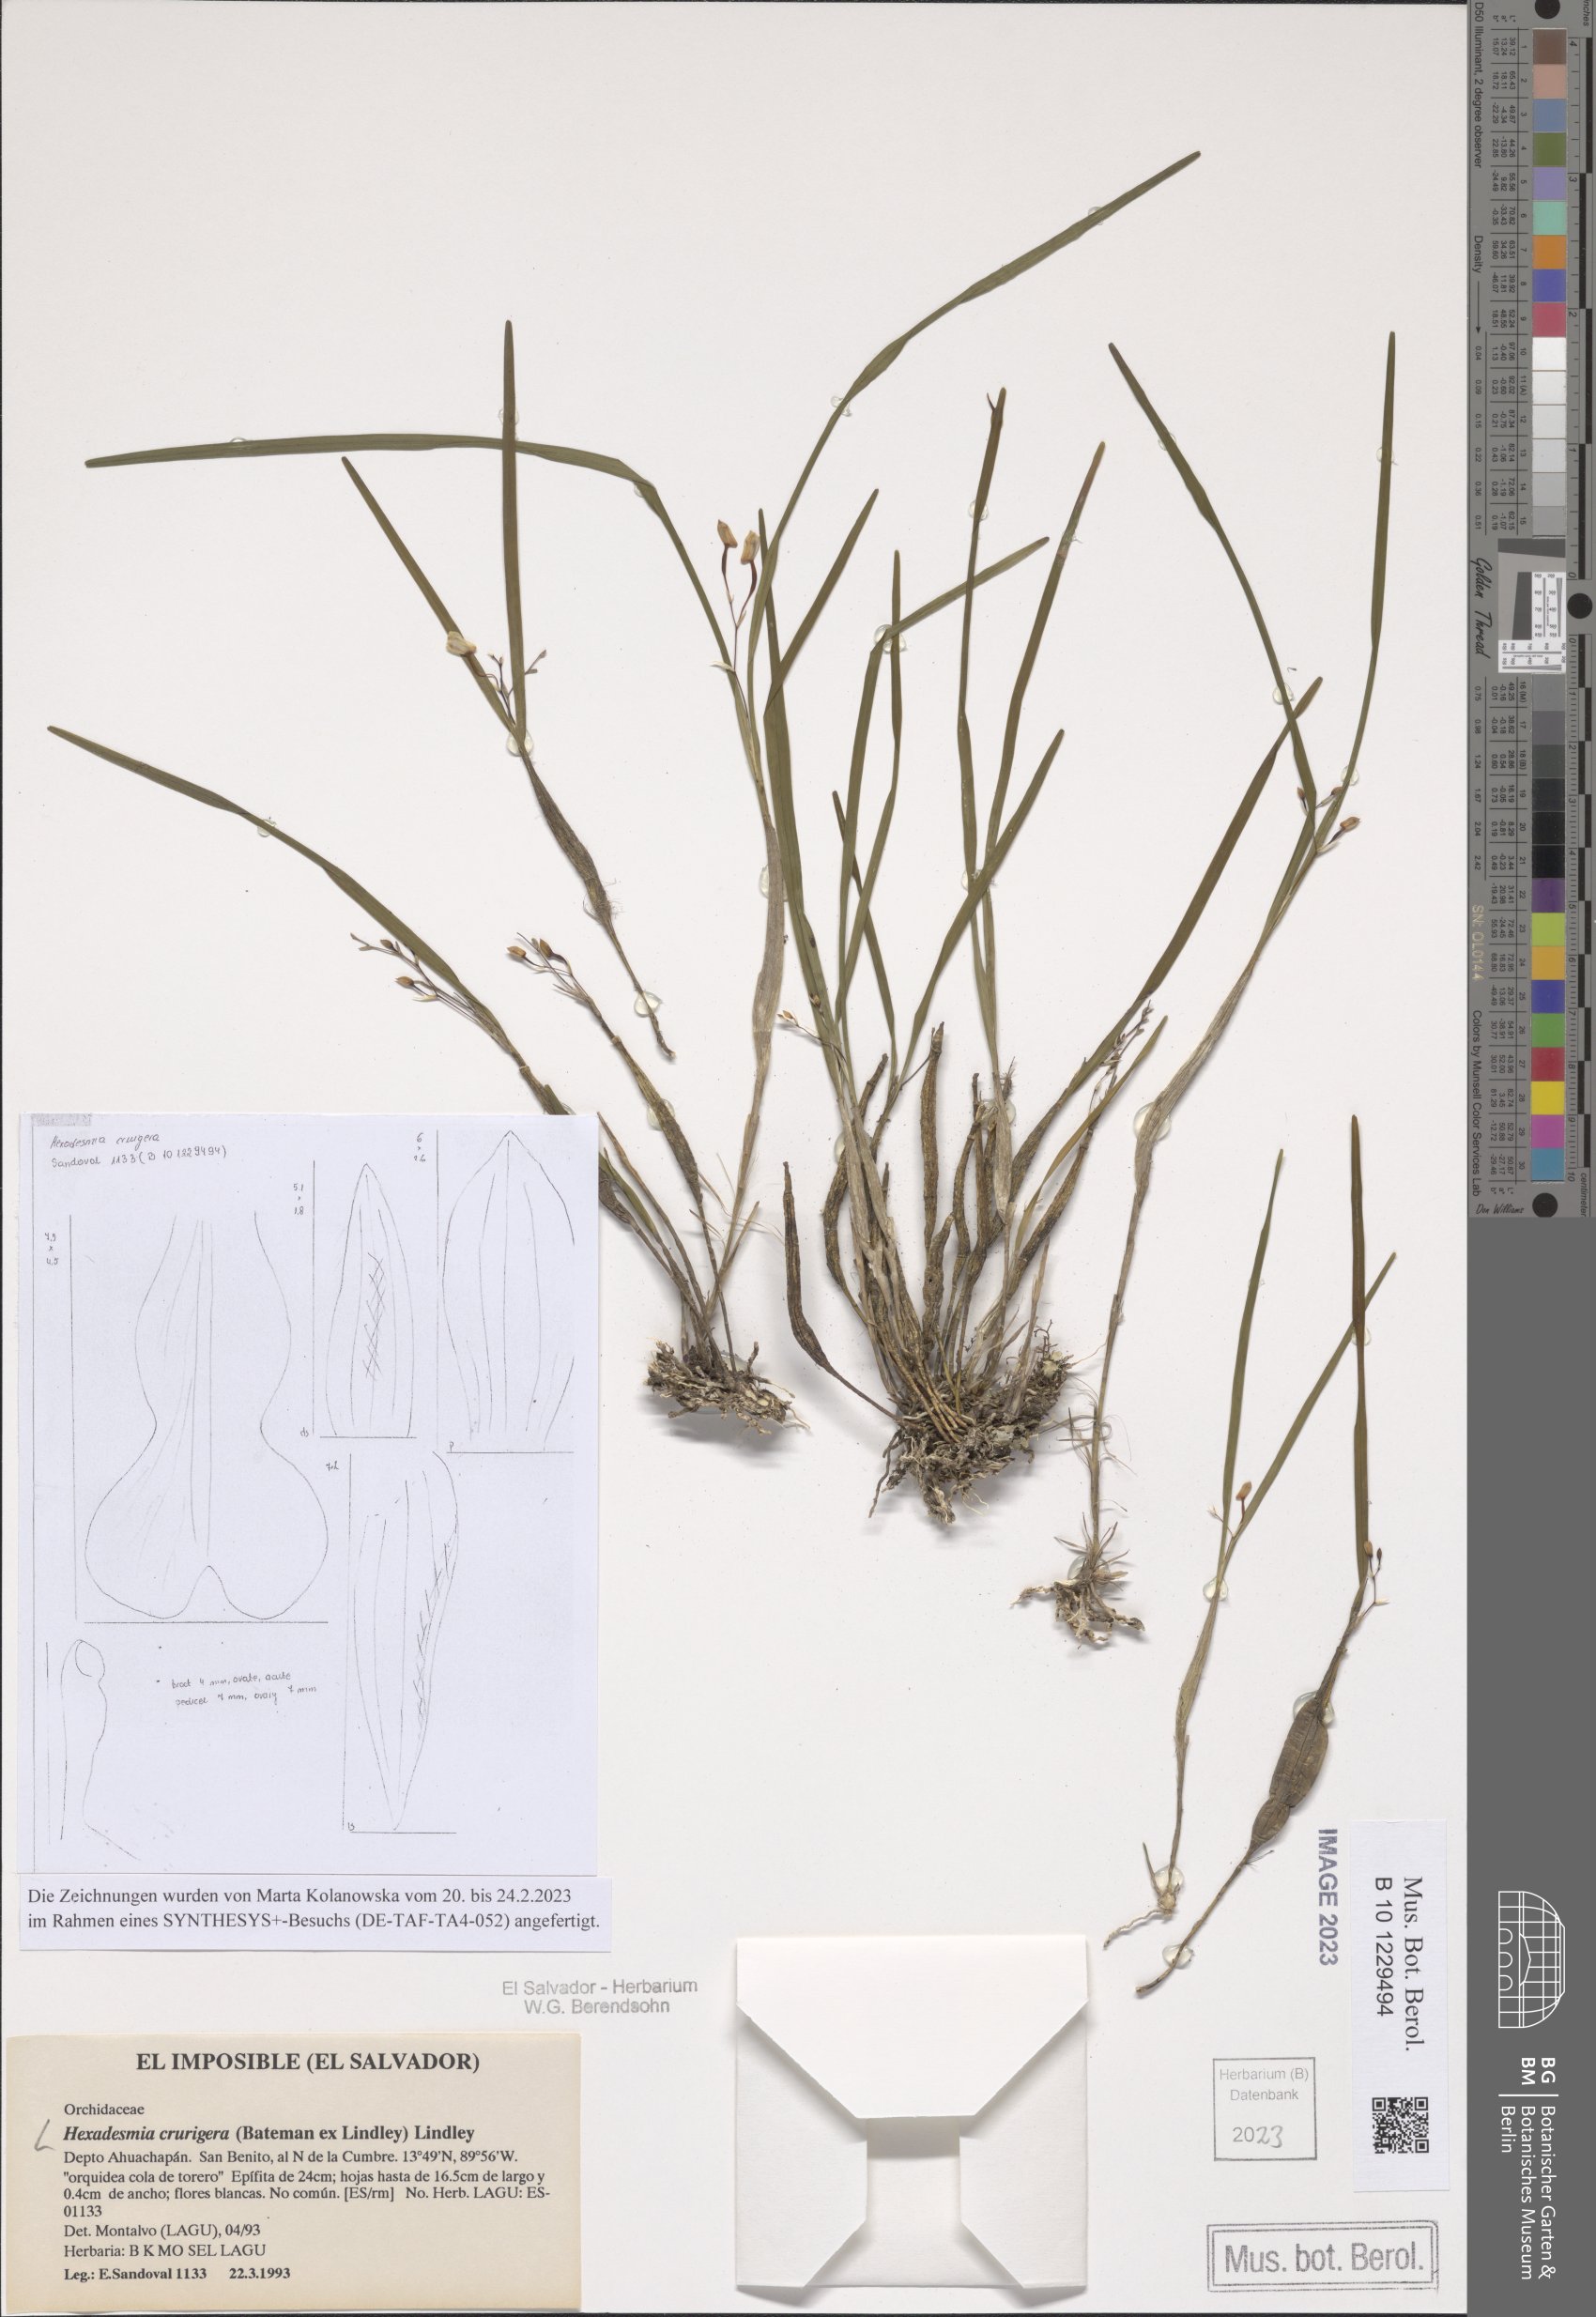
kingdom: Plantae
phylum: Tracheophyta
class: Liliopsida
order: Asparagales
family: Orchidaceae
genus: Scaphyglottis
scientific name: Scaphyglottis crurigera
